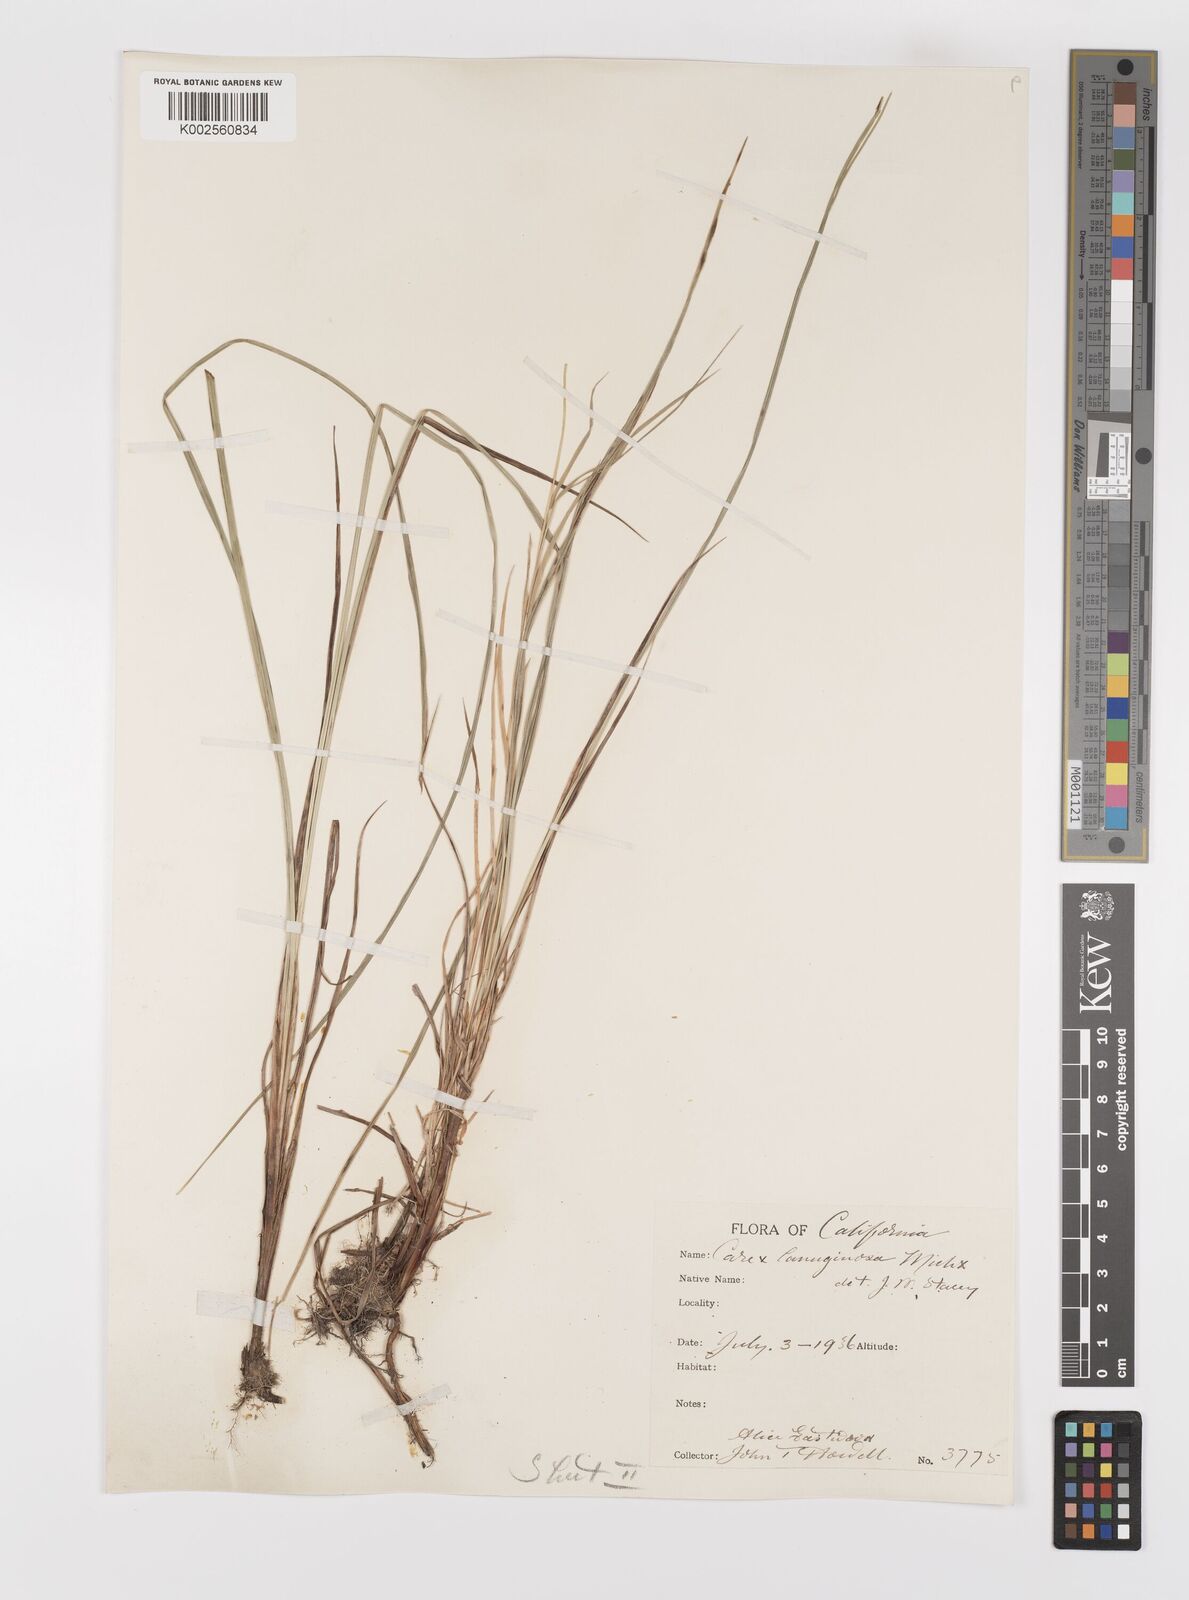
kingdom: Plantae
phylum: Tracheophyta
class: Liliopsida
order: Poales
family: Cyperaceae
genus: Carex
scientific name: Carex lasiocarpa
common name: Slender sedge
